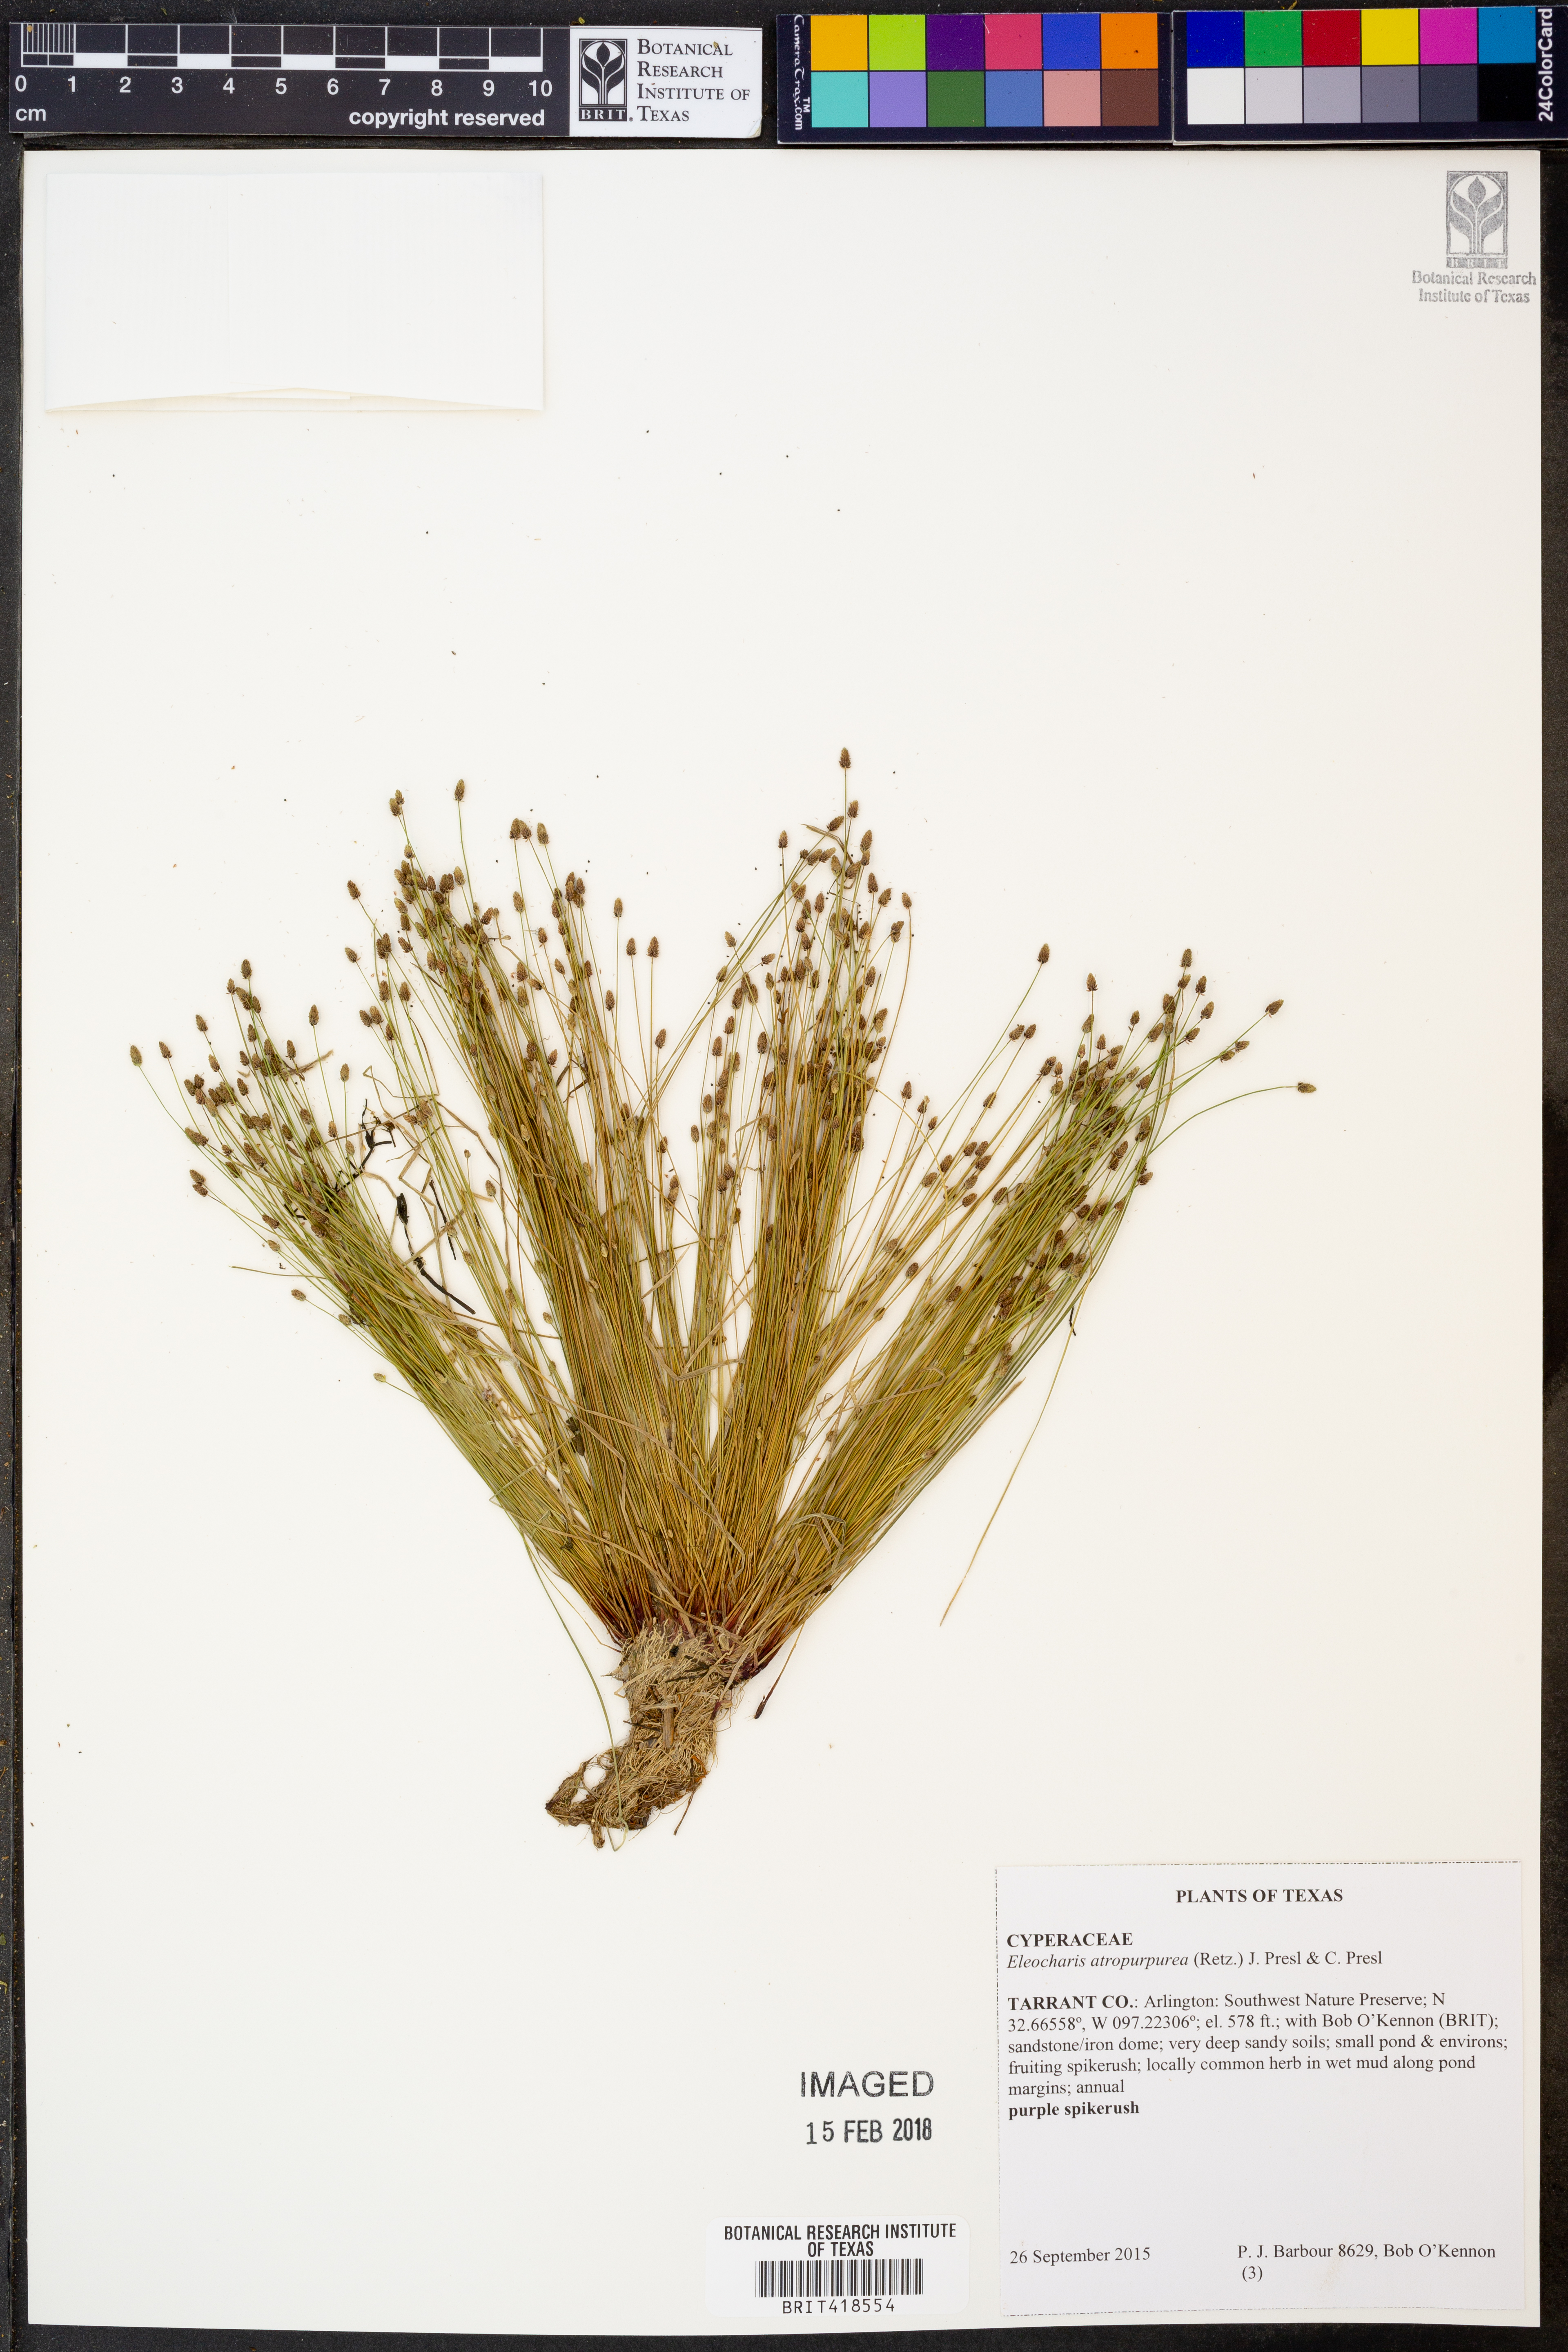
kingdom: Plantae
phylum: Tracheophyta
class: Liliopsida
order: Poales
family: Cyperaceae
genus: Eleocharis
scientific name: Eleocharis atropurpurea
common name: Purple spikerush
